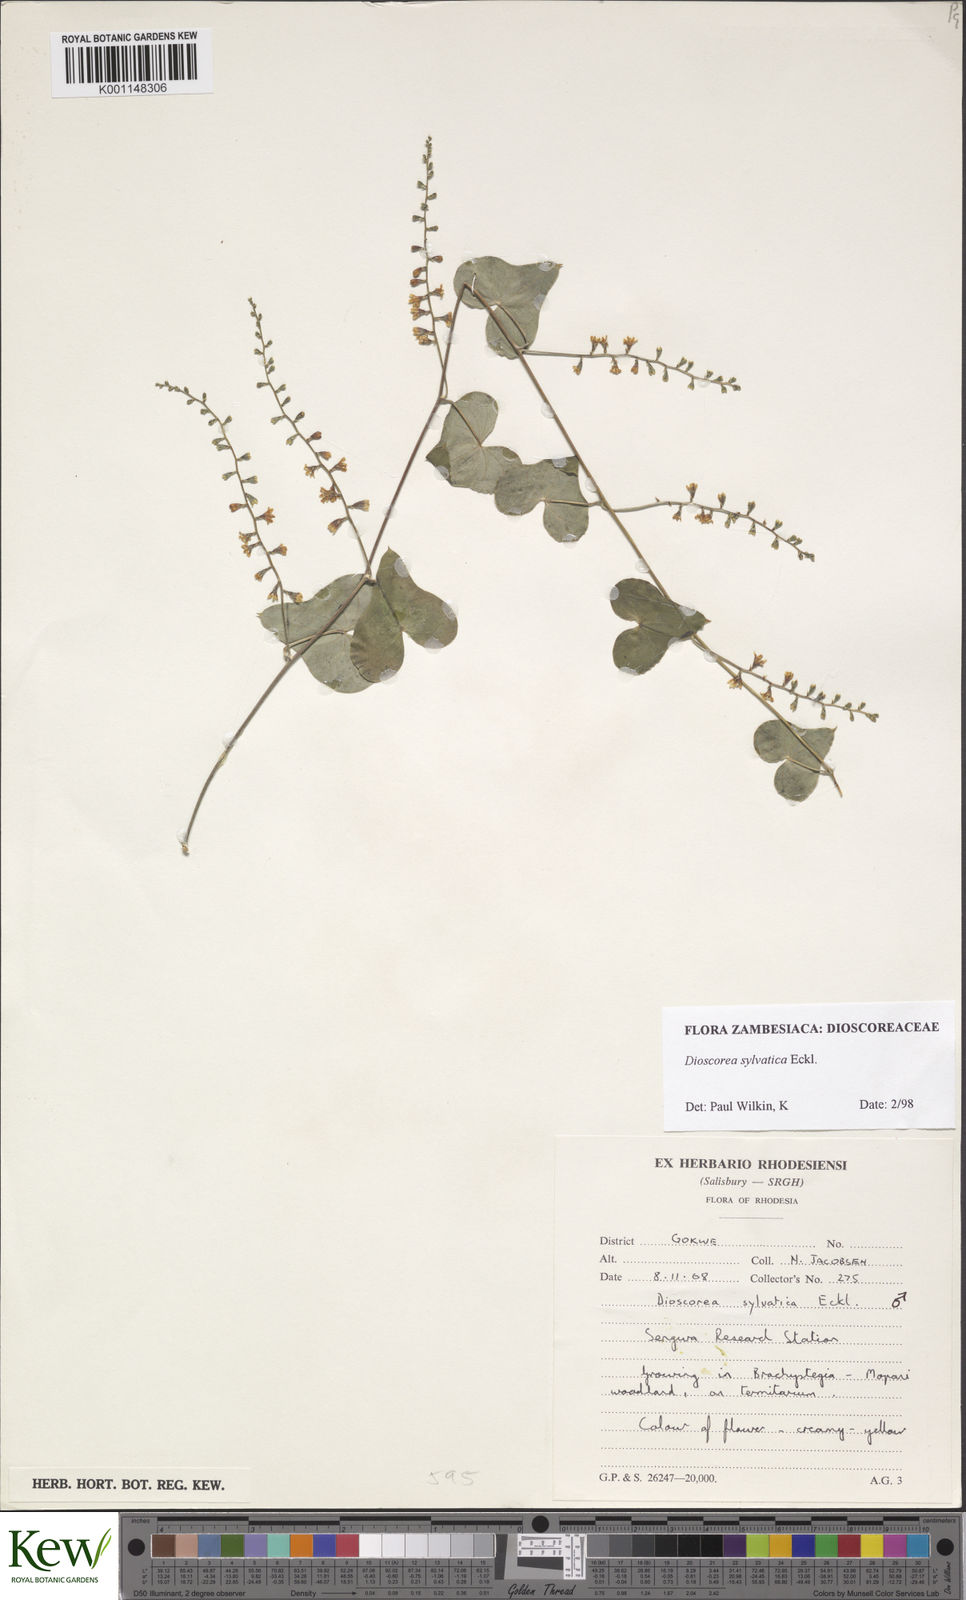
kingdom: Plantae
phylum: Tracheophyta
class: Liliopsida
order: Dioscoreales
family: Dioscoreaceae
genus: Dioscorea
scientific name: Dioscorea sylvatica
